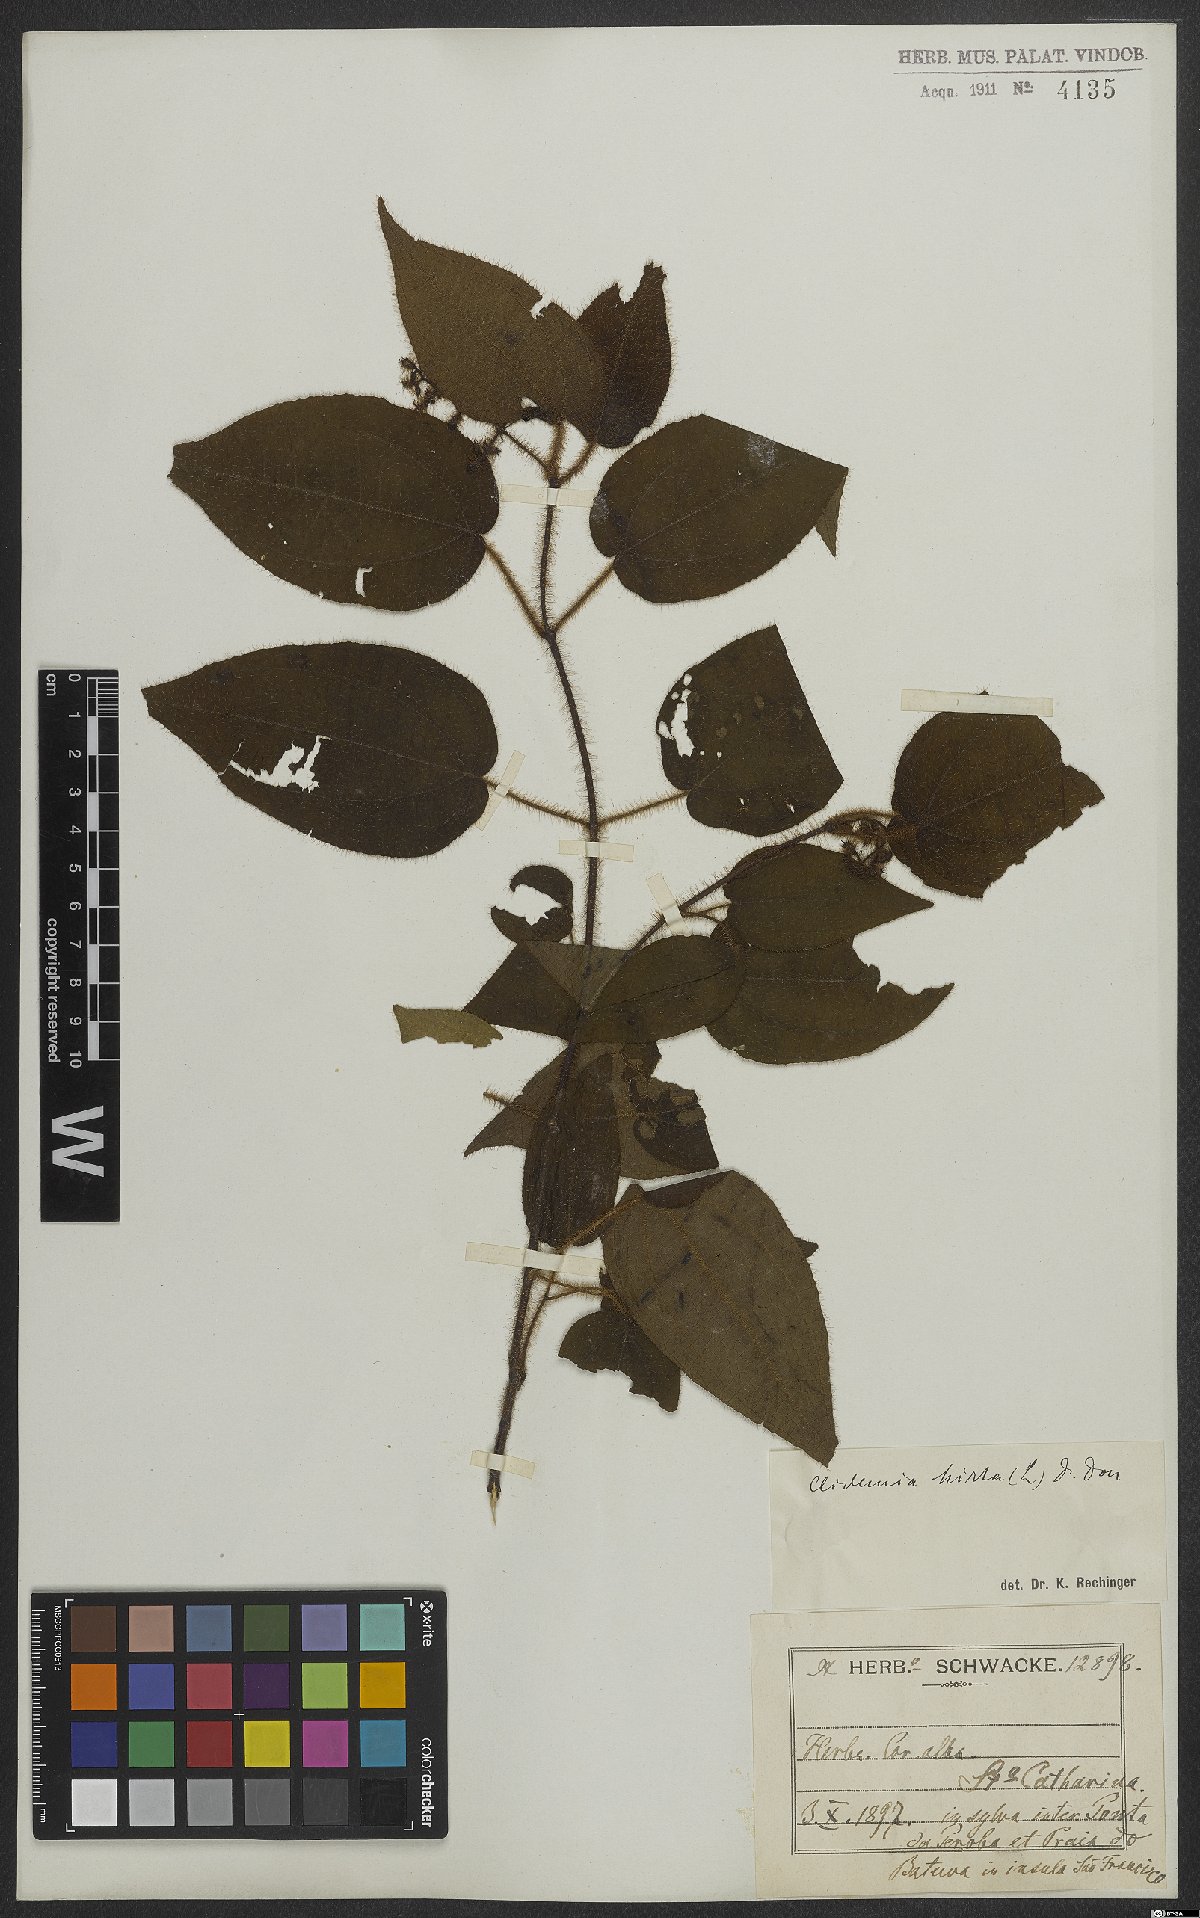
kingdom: Plantae
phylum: Tracheophyta
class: Magnoliopsida
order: Myrtales
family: Melastomataceae
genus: Miconia
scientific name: Miconia crenata
